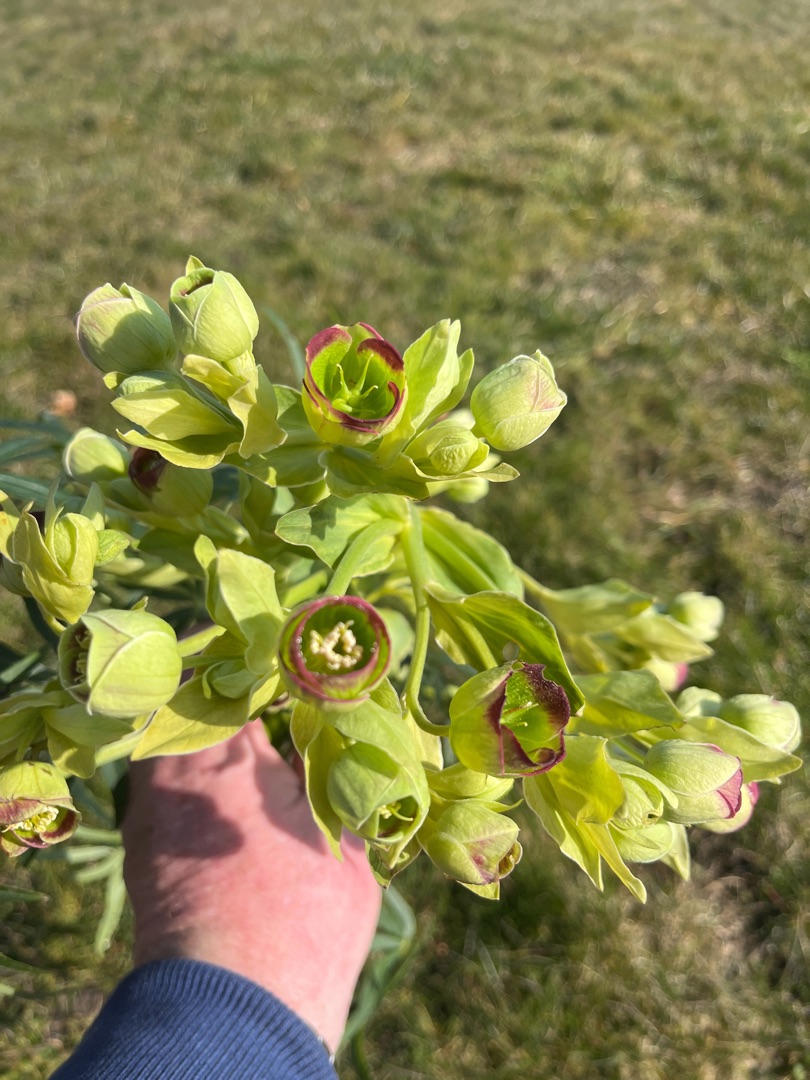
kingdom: Plantae
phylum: Tracheophyta
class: Magnoliopsida
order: Ranunculales
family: Ranunculaceae
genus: Helleborus
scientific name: Helleborus foetidus
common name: Stinkende julerose
